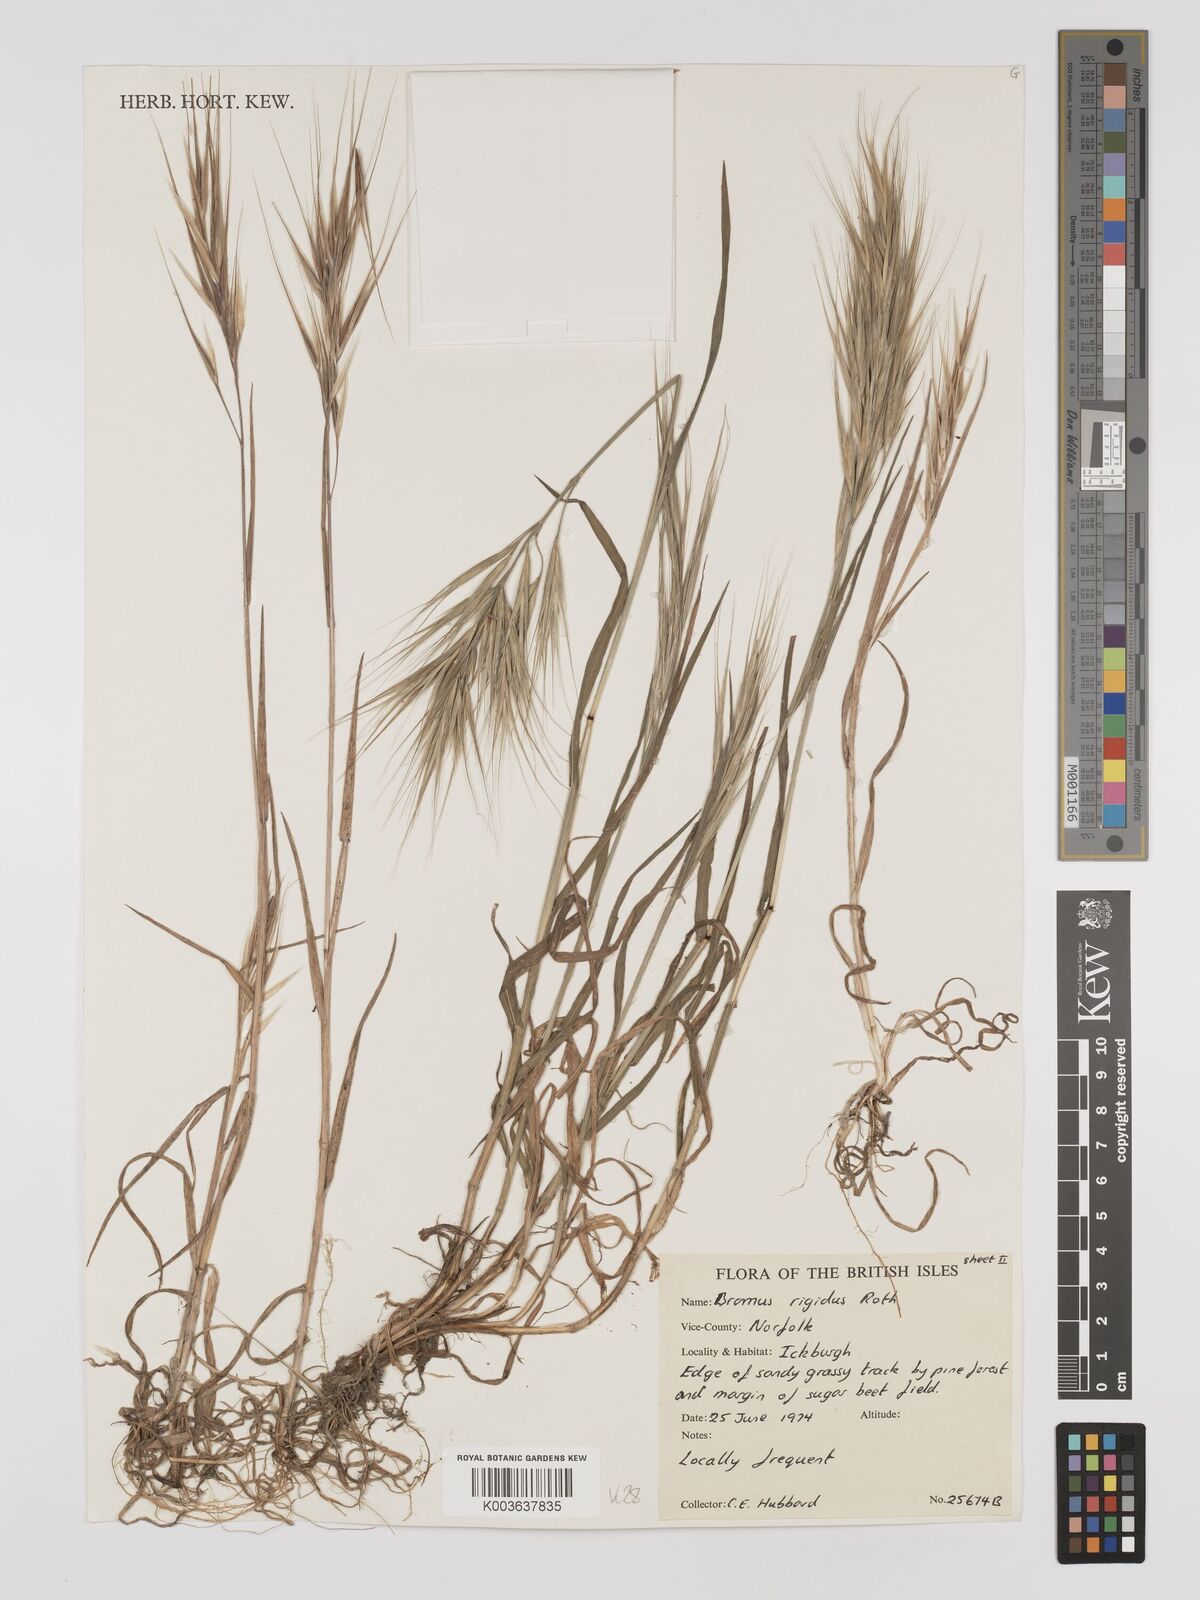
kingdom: Plantae
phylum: Tracheophyta
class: Liliopsida
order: Poales
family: Poaceae
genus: Bromus
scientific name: Bromus
